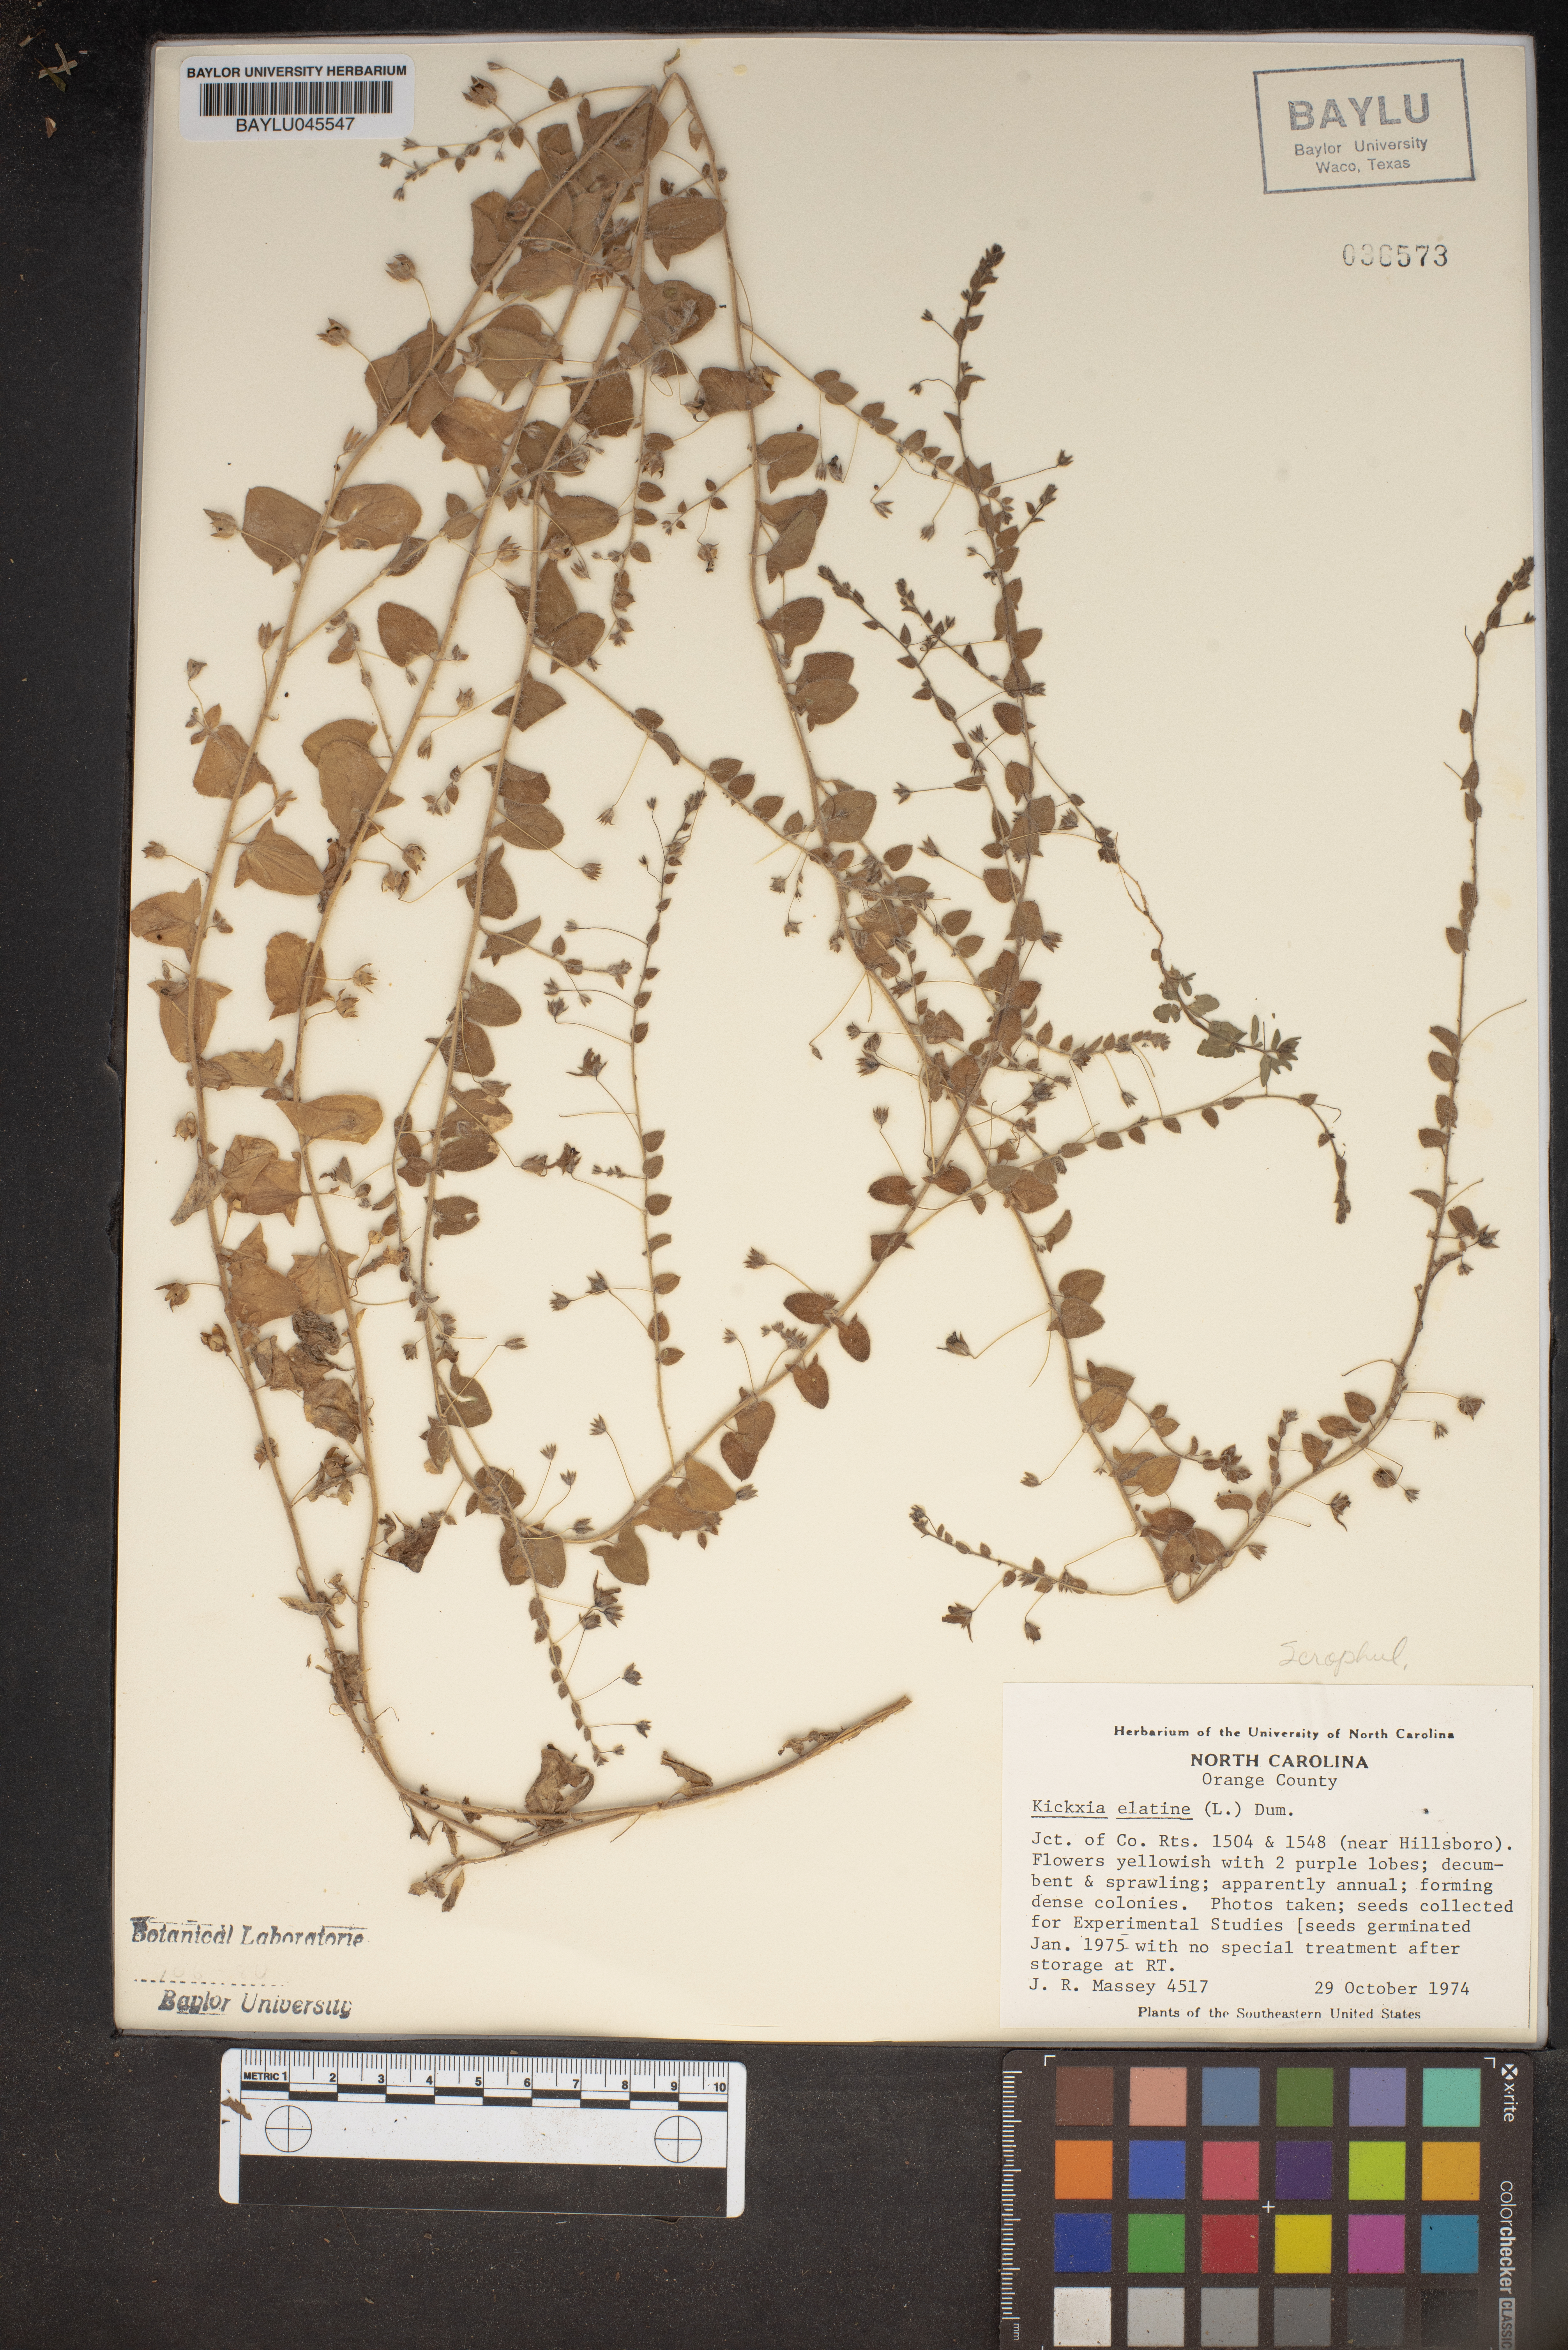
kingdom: Plantae
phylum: Tracheophyta
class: Magnoliopsida
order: Lamiales
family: Plantaginaceae
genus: Kickxia
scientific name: Kickxia elatine
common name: Sharp-leaved fluellen
